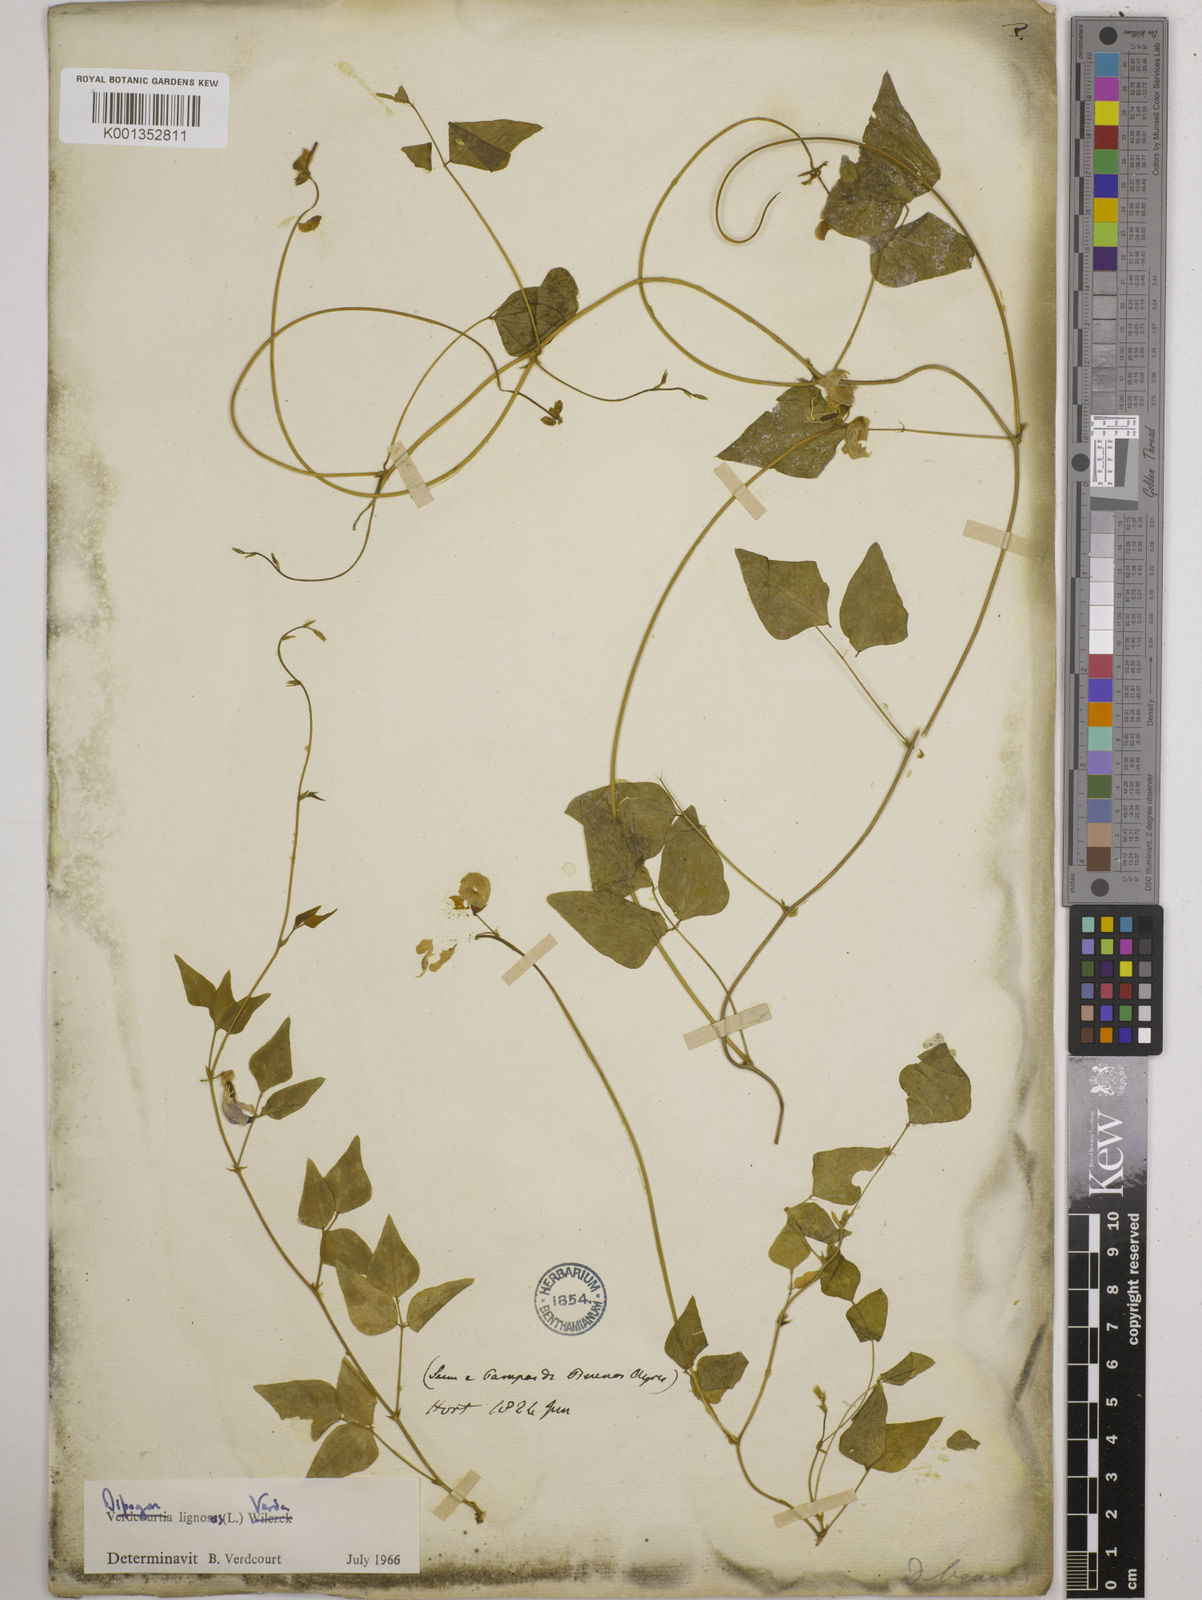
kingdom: Plantae
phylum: Tracheophyta
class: Magnoliopsida
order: Fabales
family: Fabaceae
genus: Dipogon
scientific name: Dipogon lignosus
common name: Okie bean
